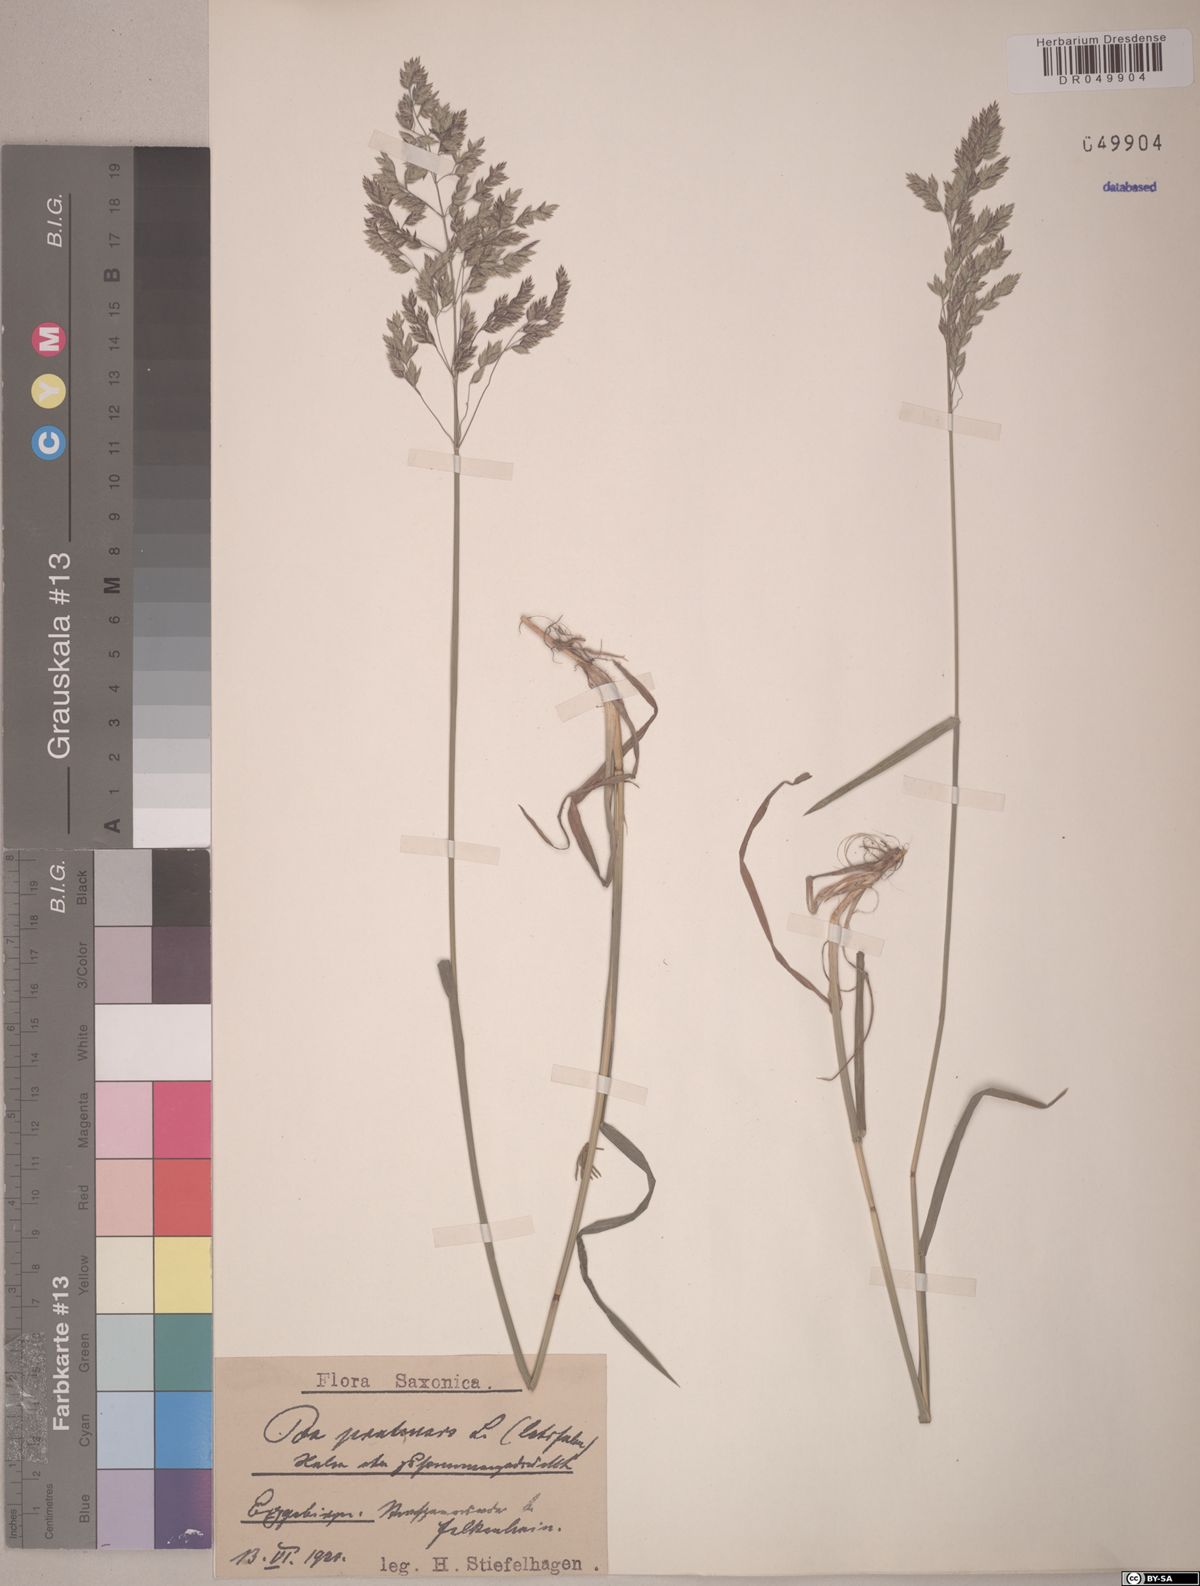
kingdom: Plantae
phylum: Tracheophyta
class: Liliopsida
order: Poales
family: Poaceae
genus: Poa
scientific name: Poa pratensis
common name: Kentucky bluegrass
